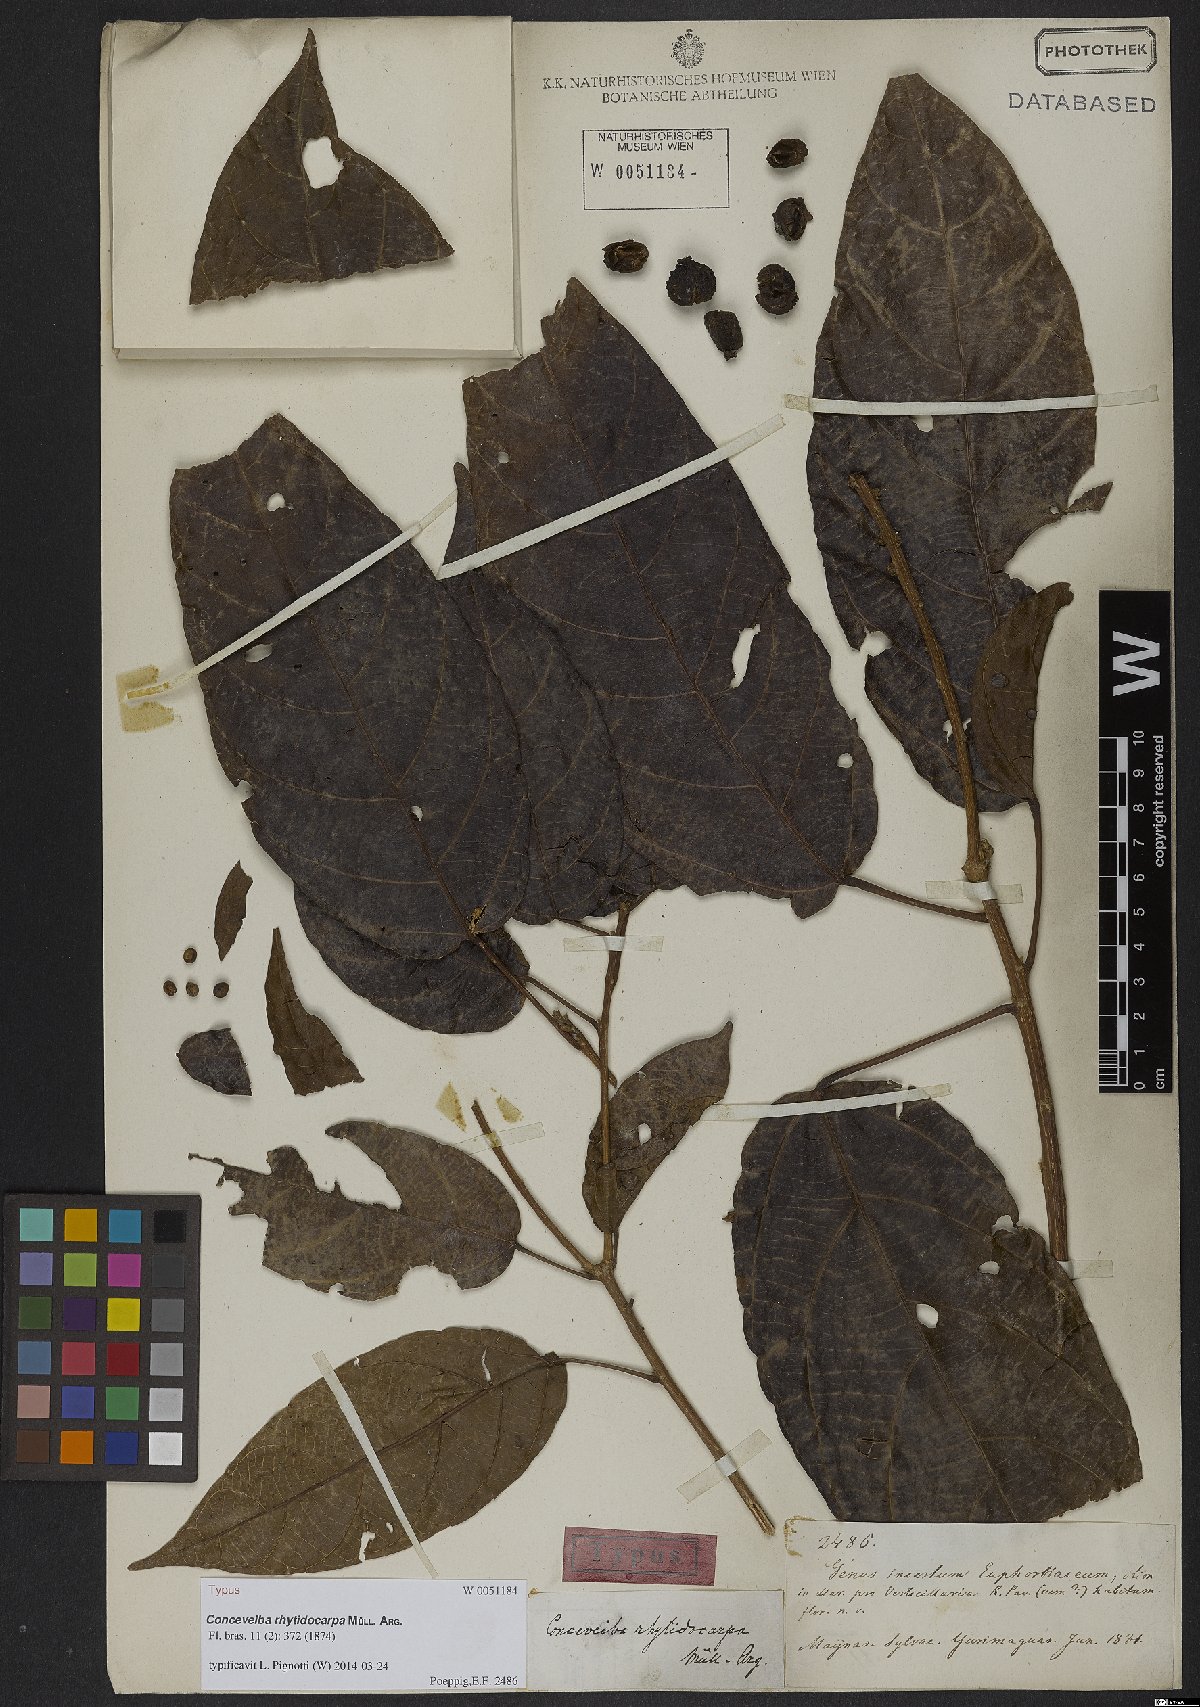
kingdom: Plantae
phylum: Tracheophyta
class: Magnoliopsida
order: Malpighiales
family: Euphorbiaceae
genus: Conceveiba
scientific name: Conceveiba rhytidocarpa
